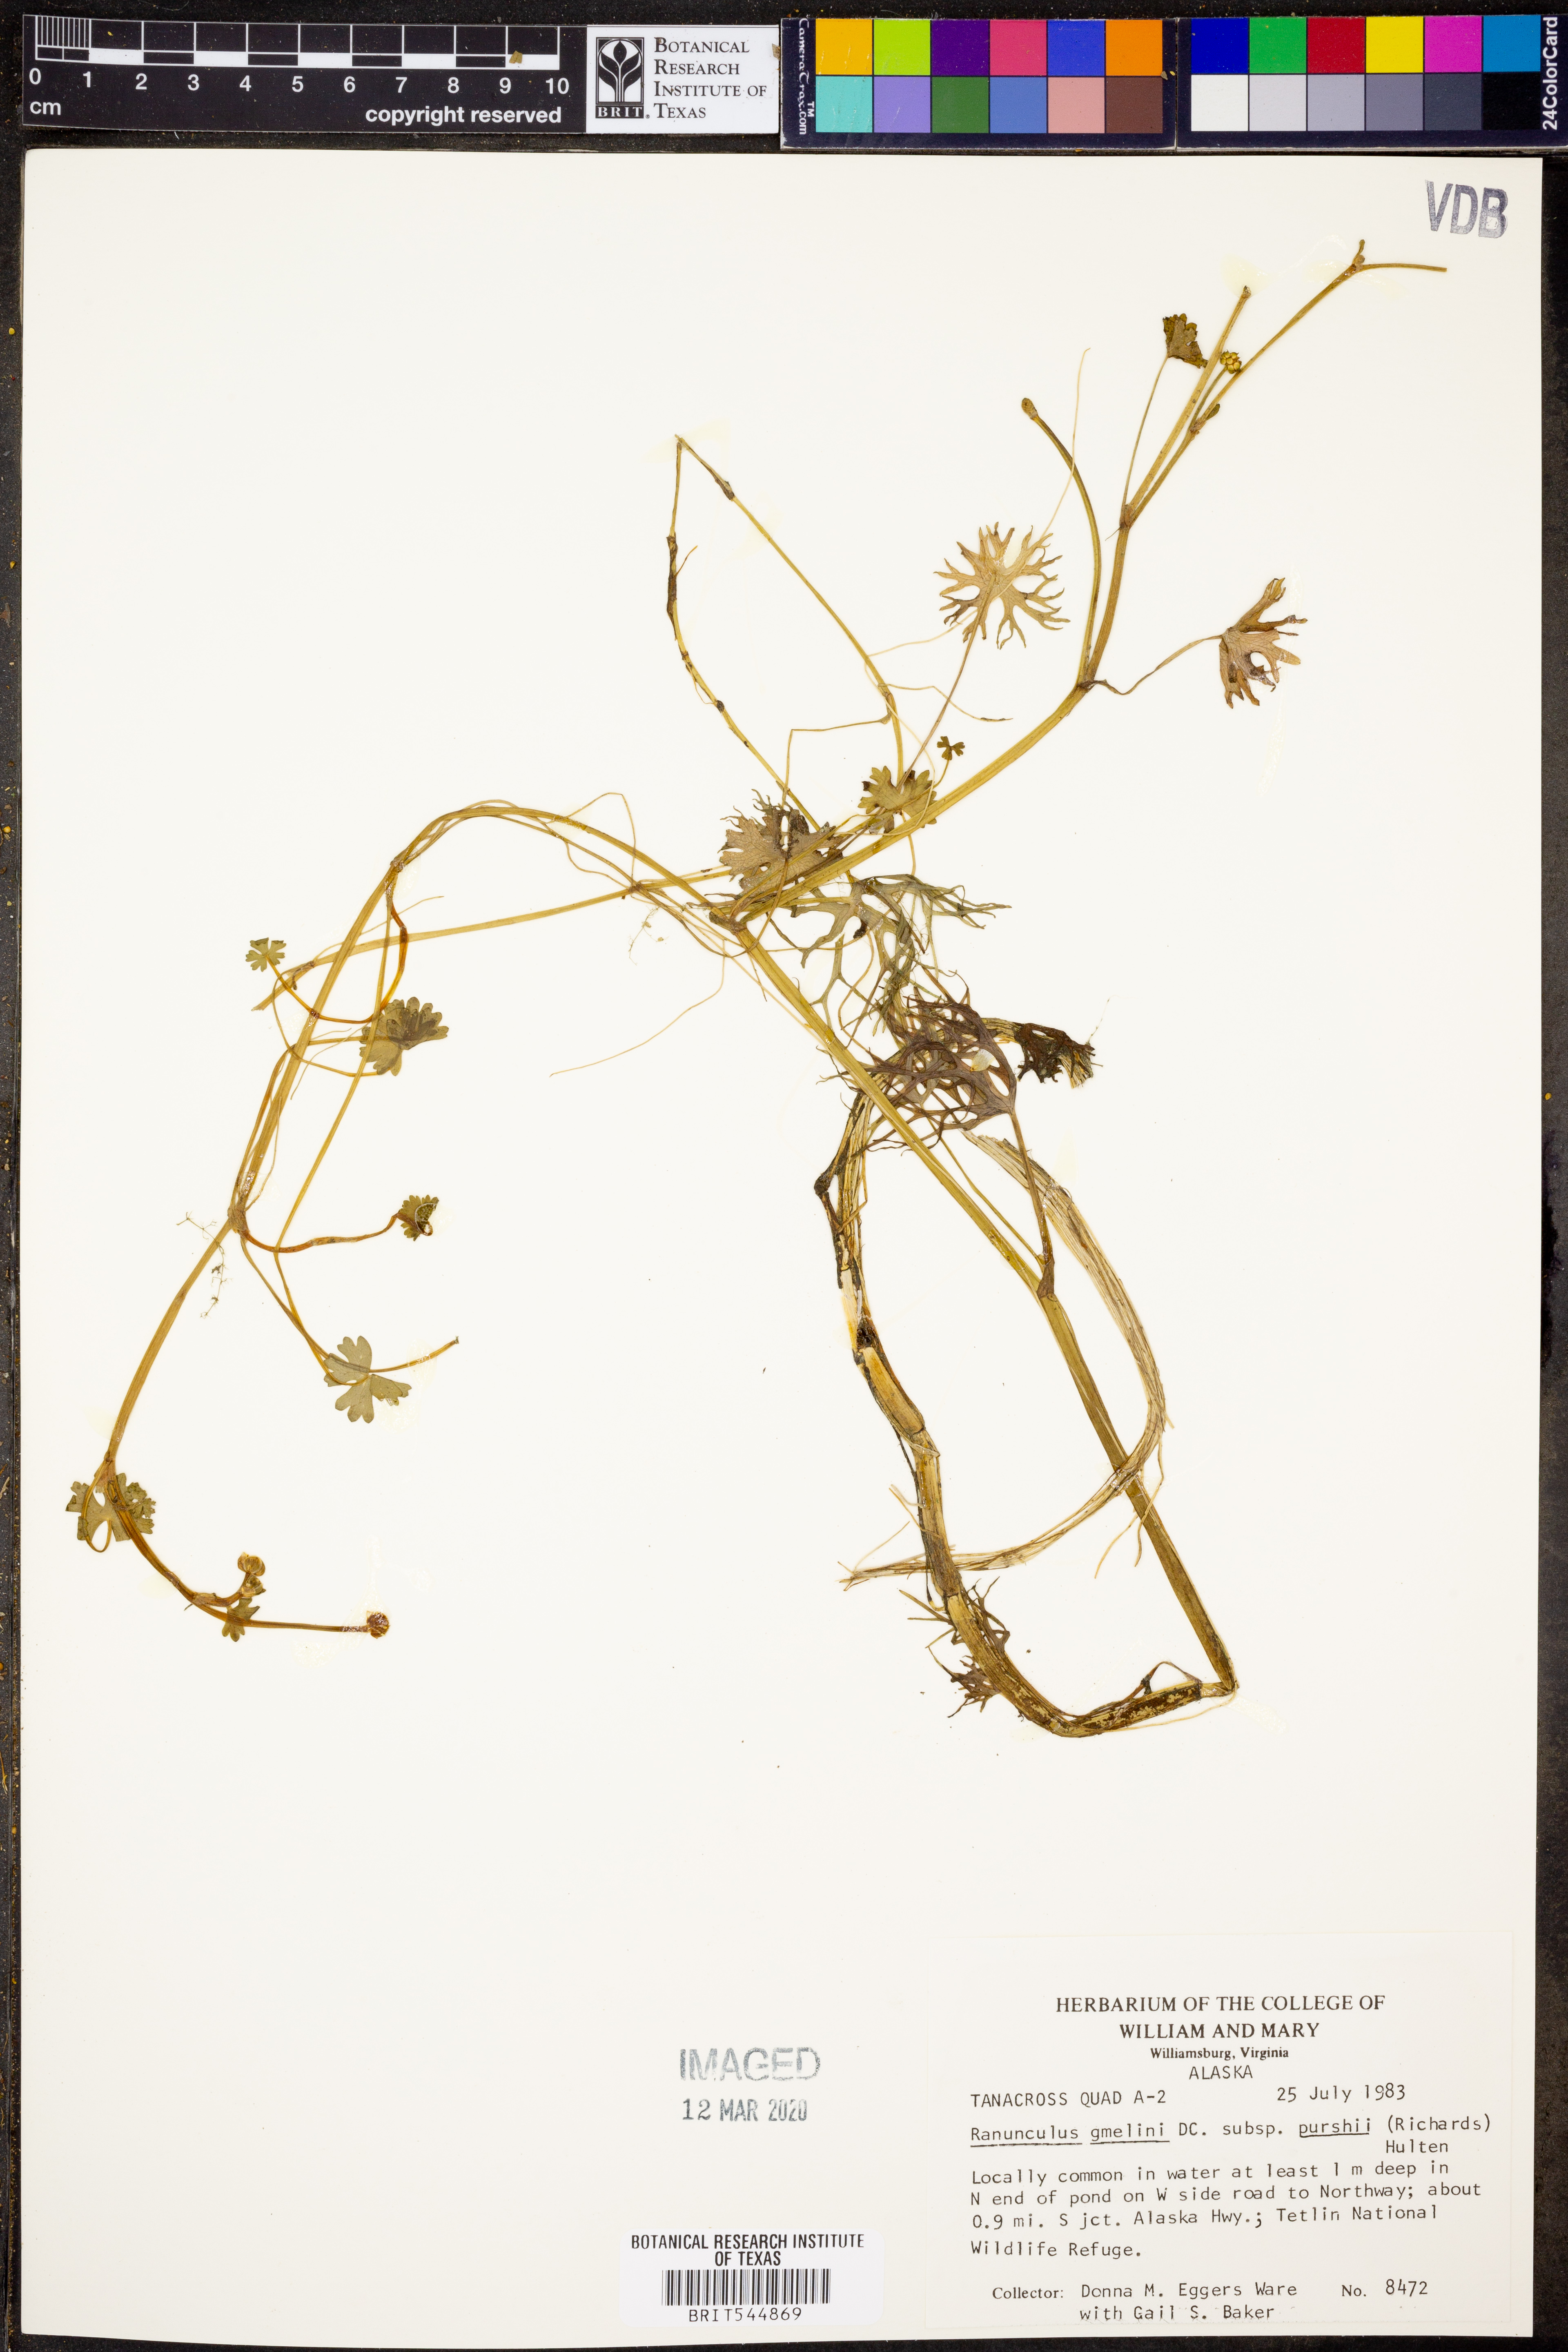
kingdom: Plantae
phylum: Tracheophyta
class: Magnoliopsida
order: Ranunculales
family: Ranunculaceae
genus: Ranunculus
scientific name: Ranunculus gmelinii
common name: Gmelin's buttercup
